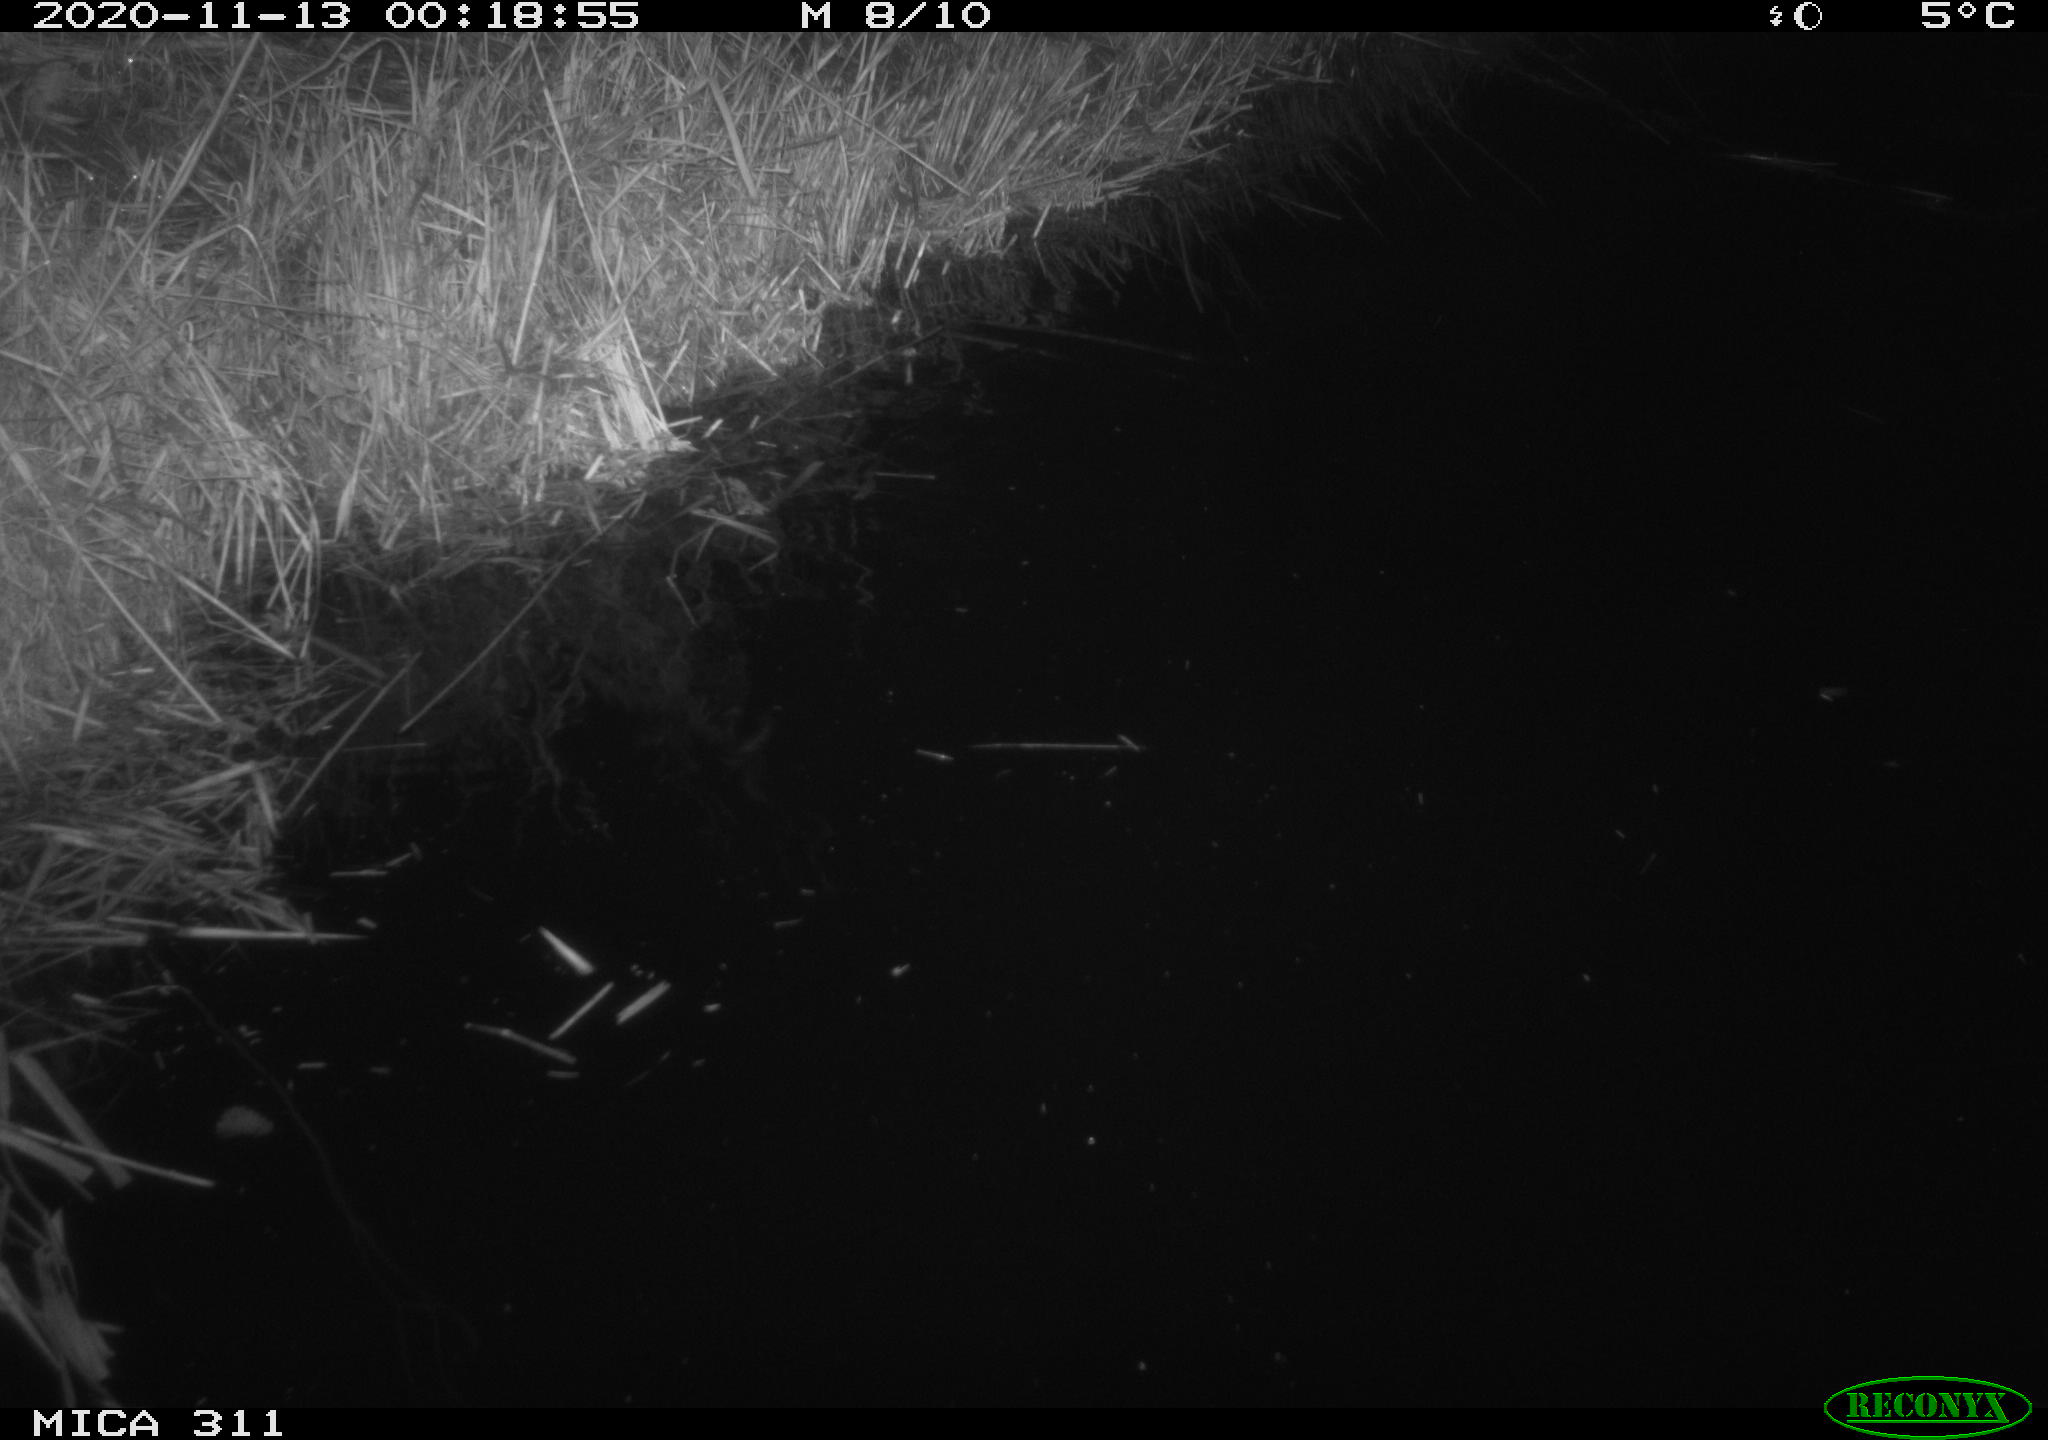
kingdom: Animalia
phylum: Chordata
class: Mammalia
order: Rodentia
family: Muridae
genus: Rattus
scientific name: Rattus norvegicus
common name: Brown rat
